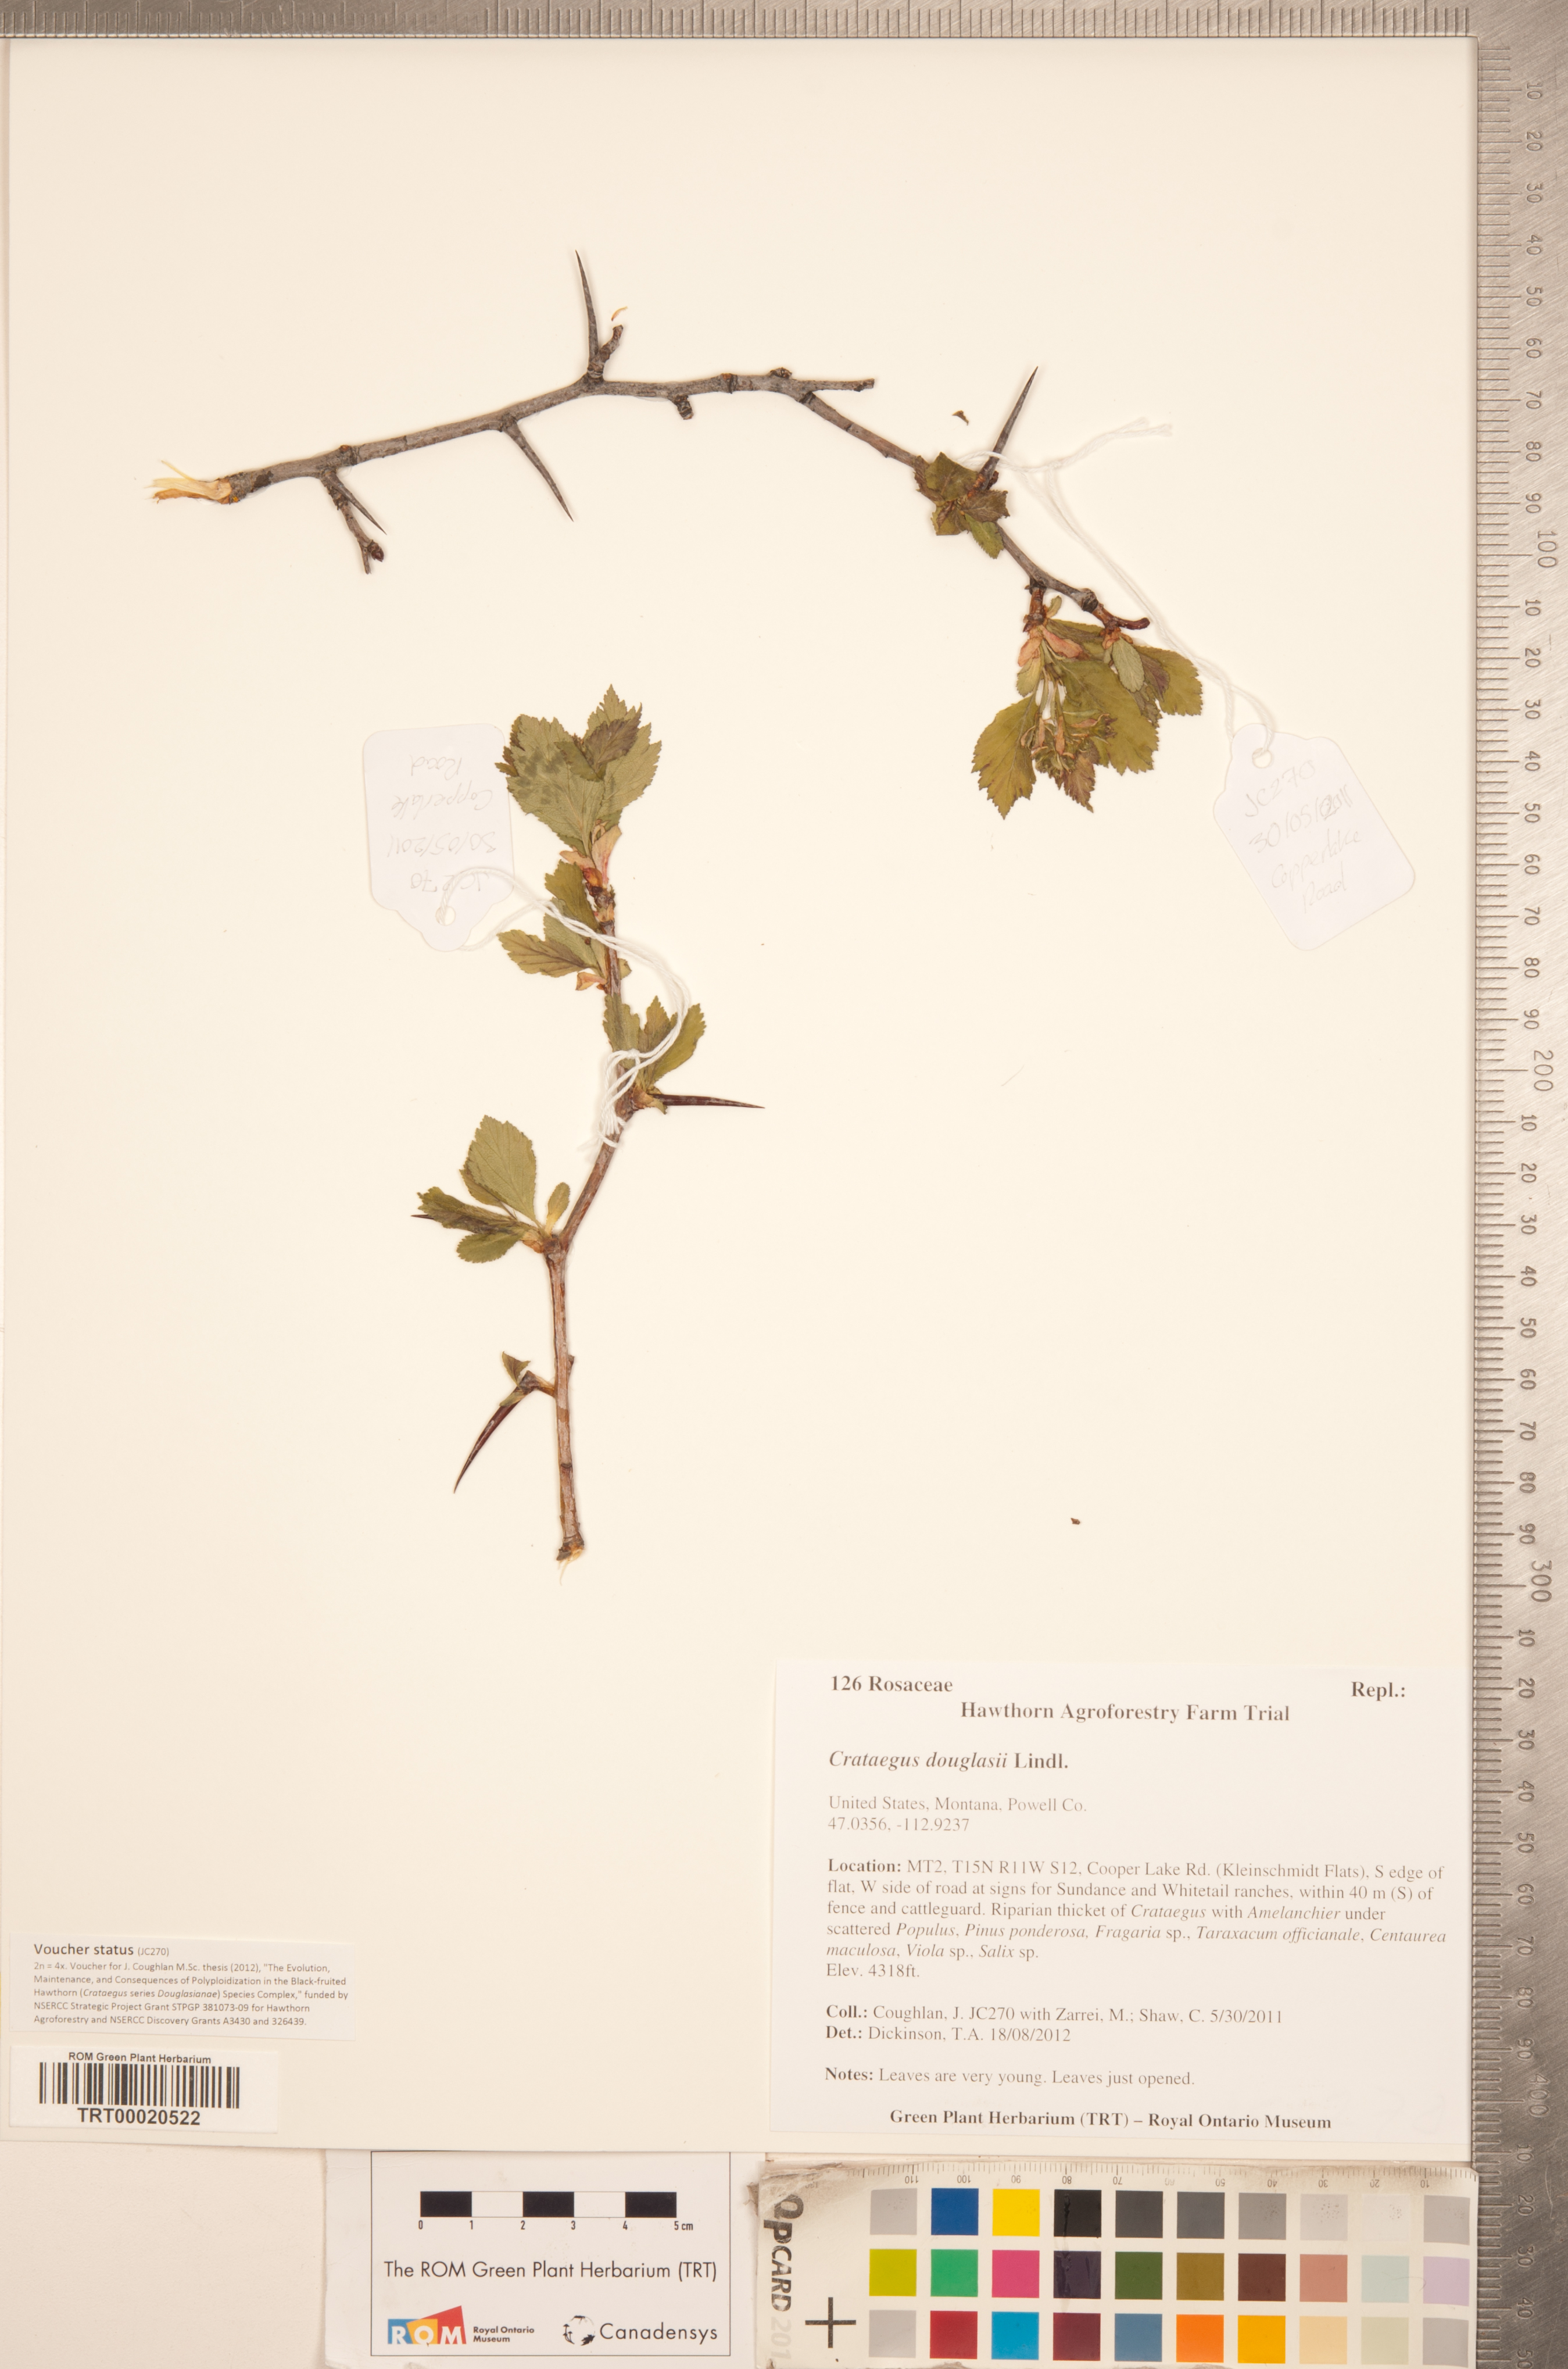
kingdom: Plantae
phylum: Tracheophyta
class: Magnoliopsida
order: Rosales
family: Rosaceae
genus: Crataegus
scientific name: Crataegus douglasii
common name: Black hawthorn
